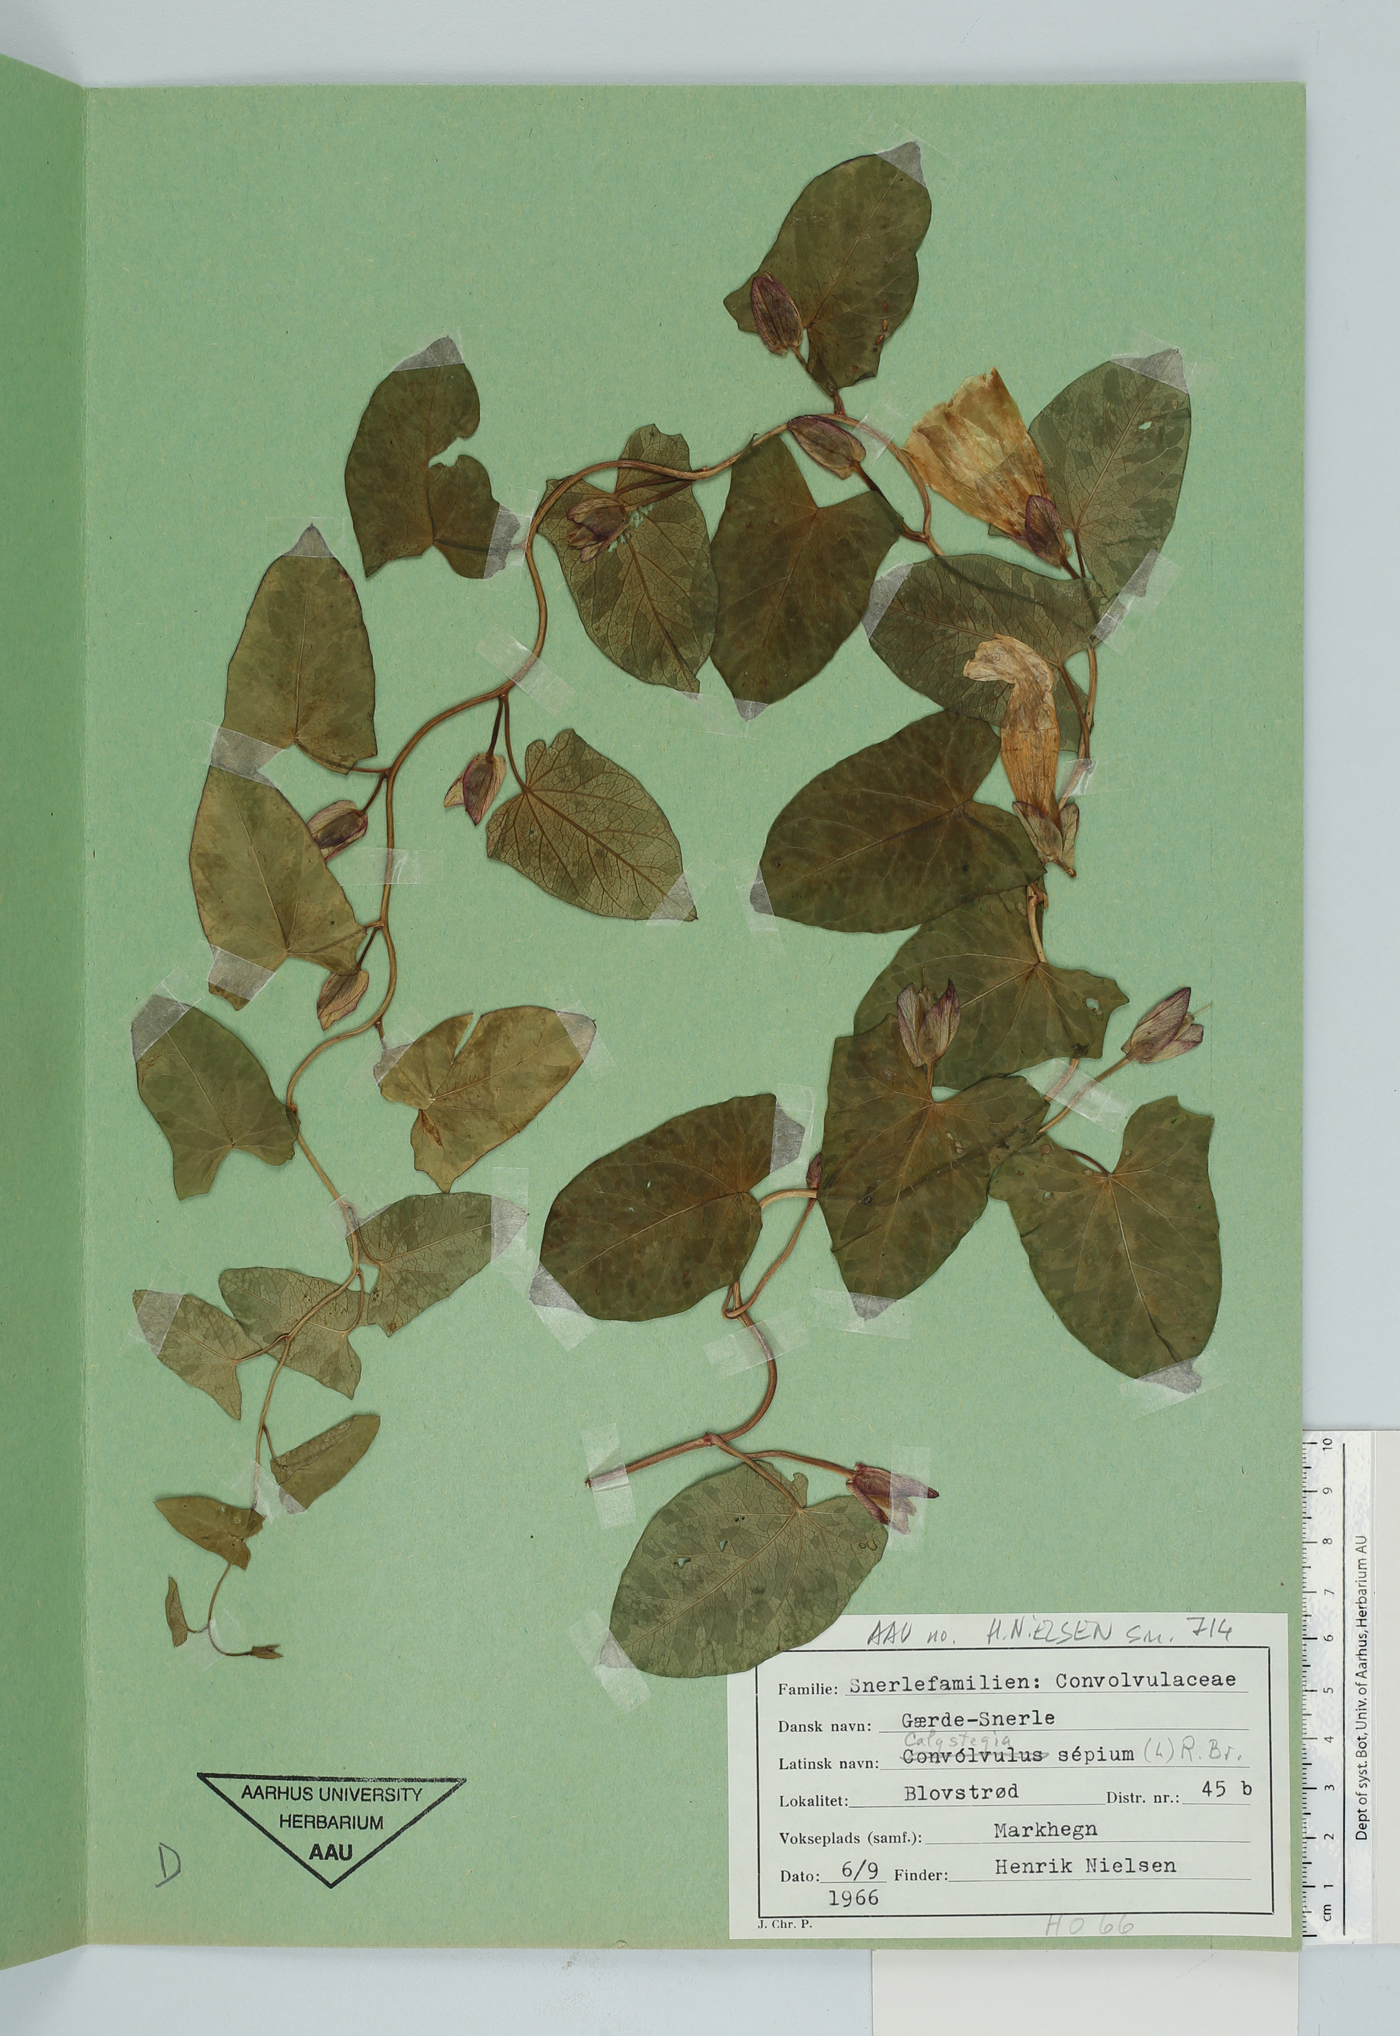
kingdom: Plantae
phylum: Tracheophyta
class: Magnoliopsida
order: Solanales
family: Convolvulaceae
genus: Calystegia
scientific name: Calystegia sepium
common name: Hedge bindweed
